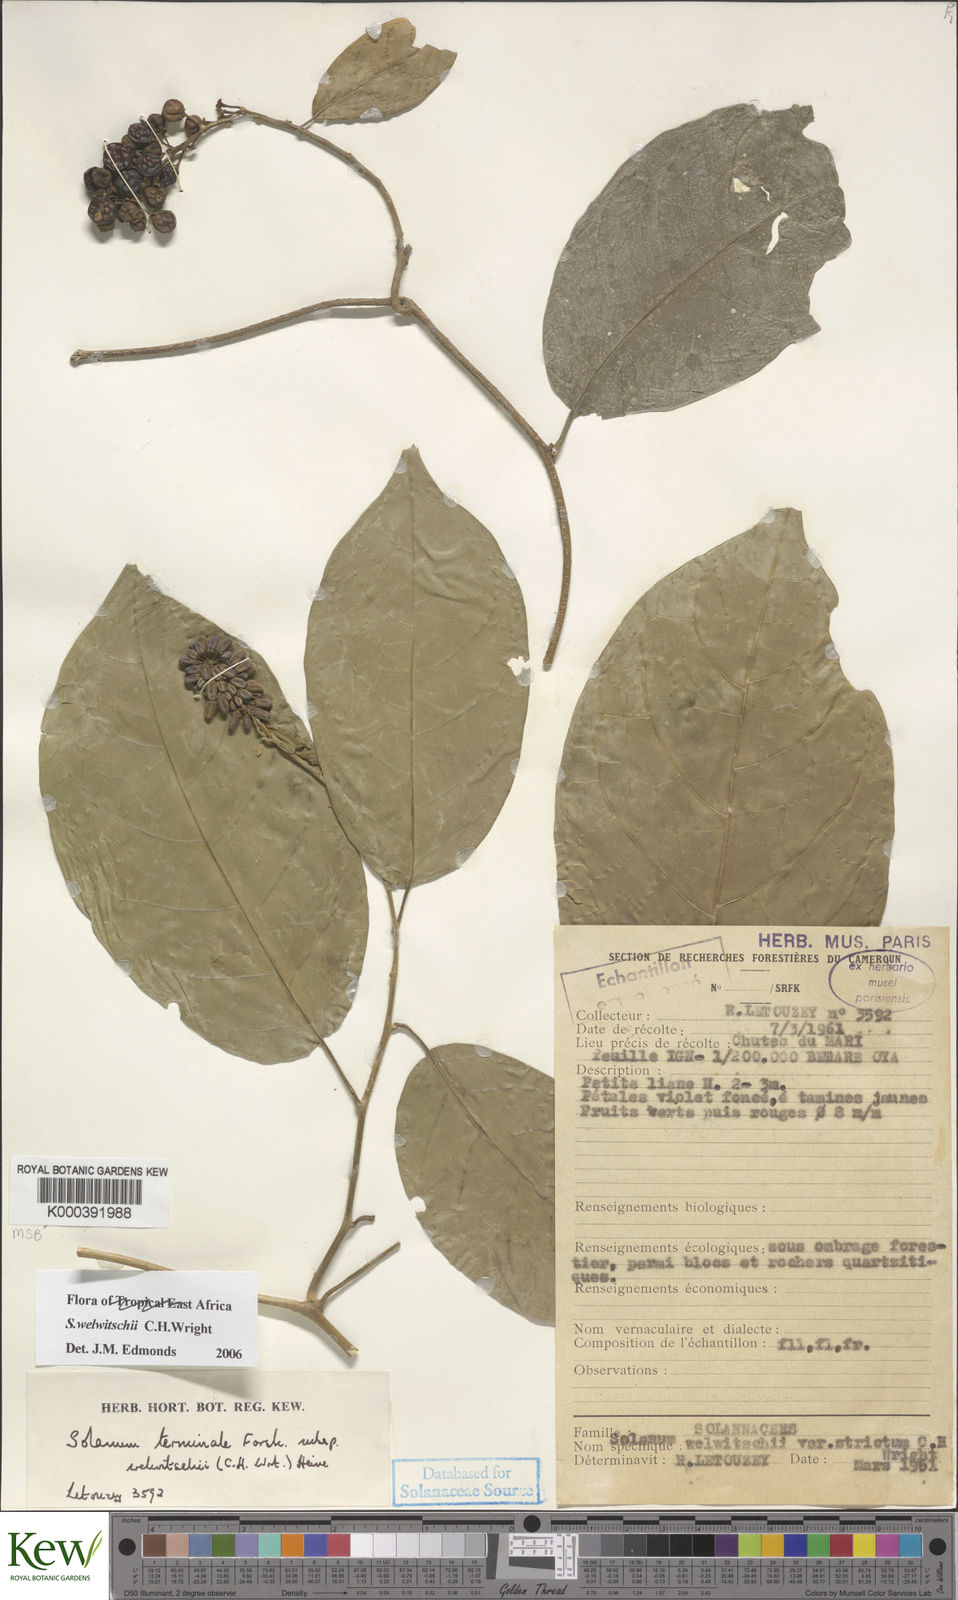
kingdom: Plantae
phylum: Tracheophyta
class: Magnoliopsida
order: Solanales
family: Solanaceae
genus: Solanum
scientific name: Solanum terminale
